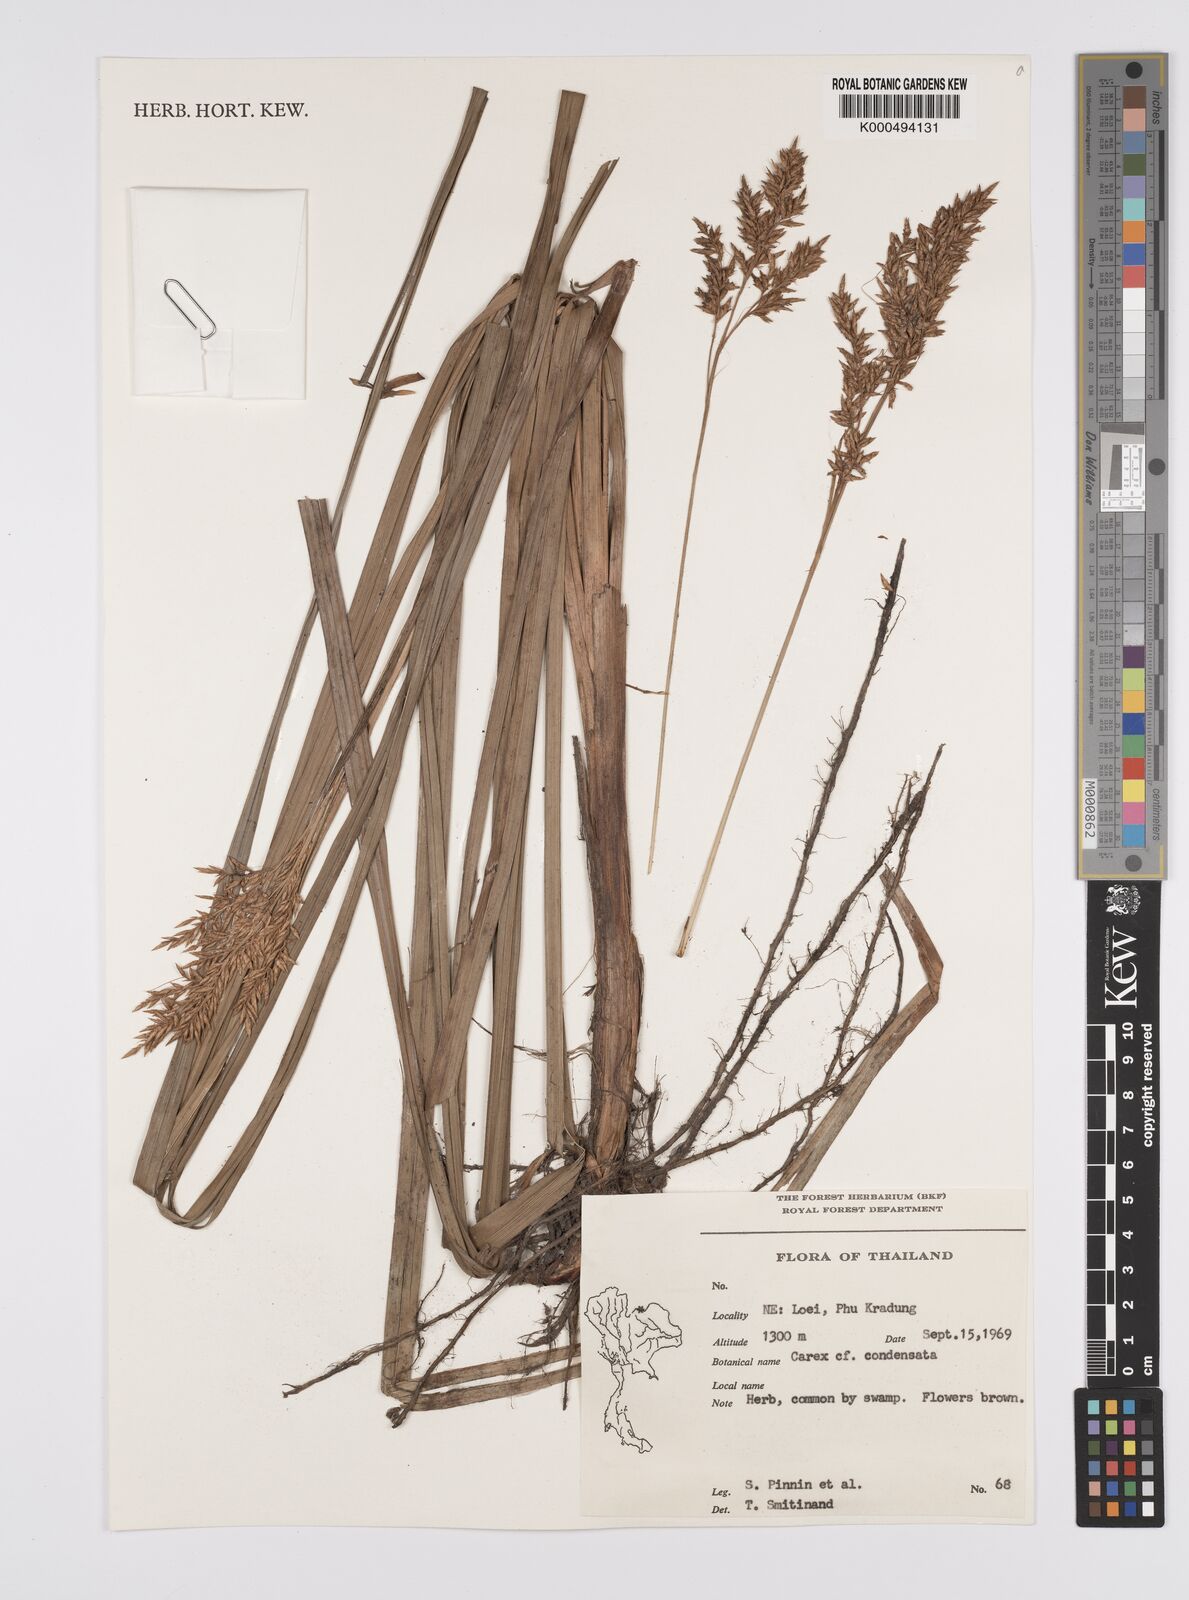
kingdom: Plantae
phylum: Tracheophyta
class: Liliopsida
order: Poales
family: Cyperaceae
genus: Carex
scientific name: Carex condensata
